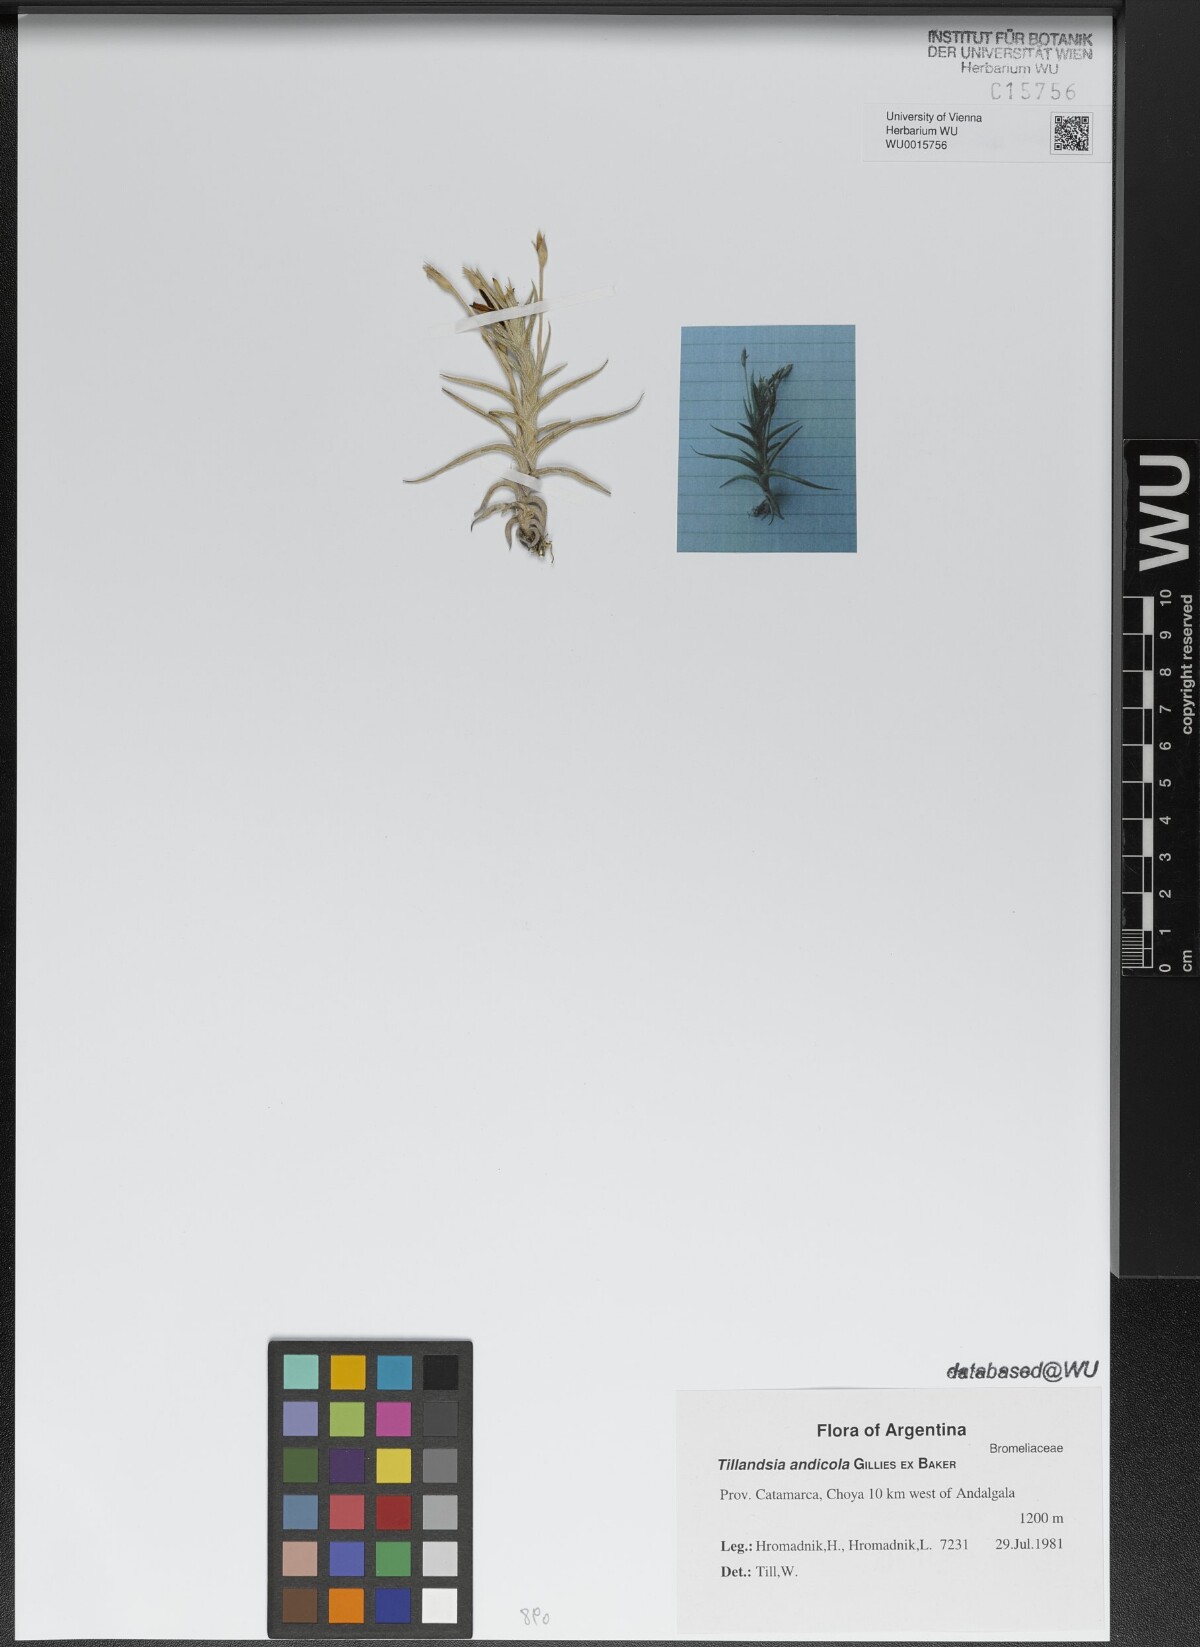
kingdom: Plantae
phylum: Tracheophyta
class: Liliopsida
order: Poales
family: Bromeliaceae
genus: Tillandsia
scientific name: Tillandsia andicola
